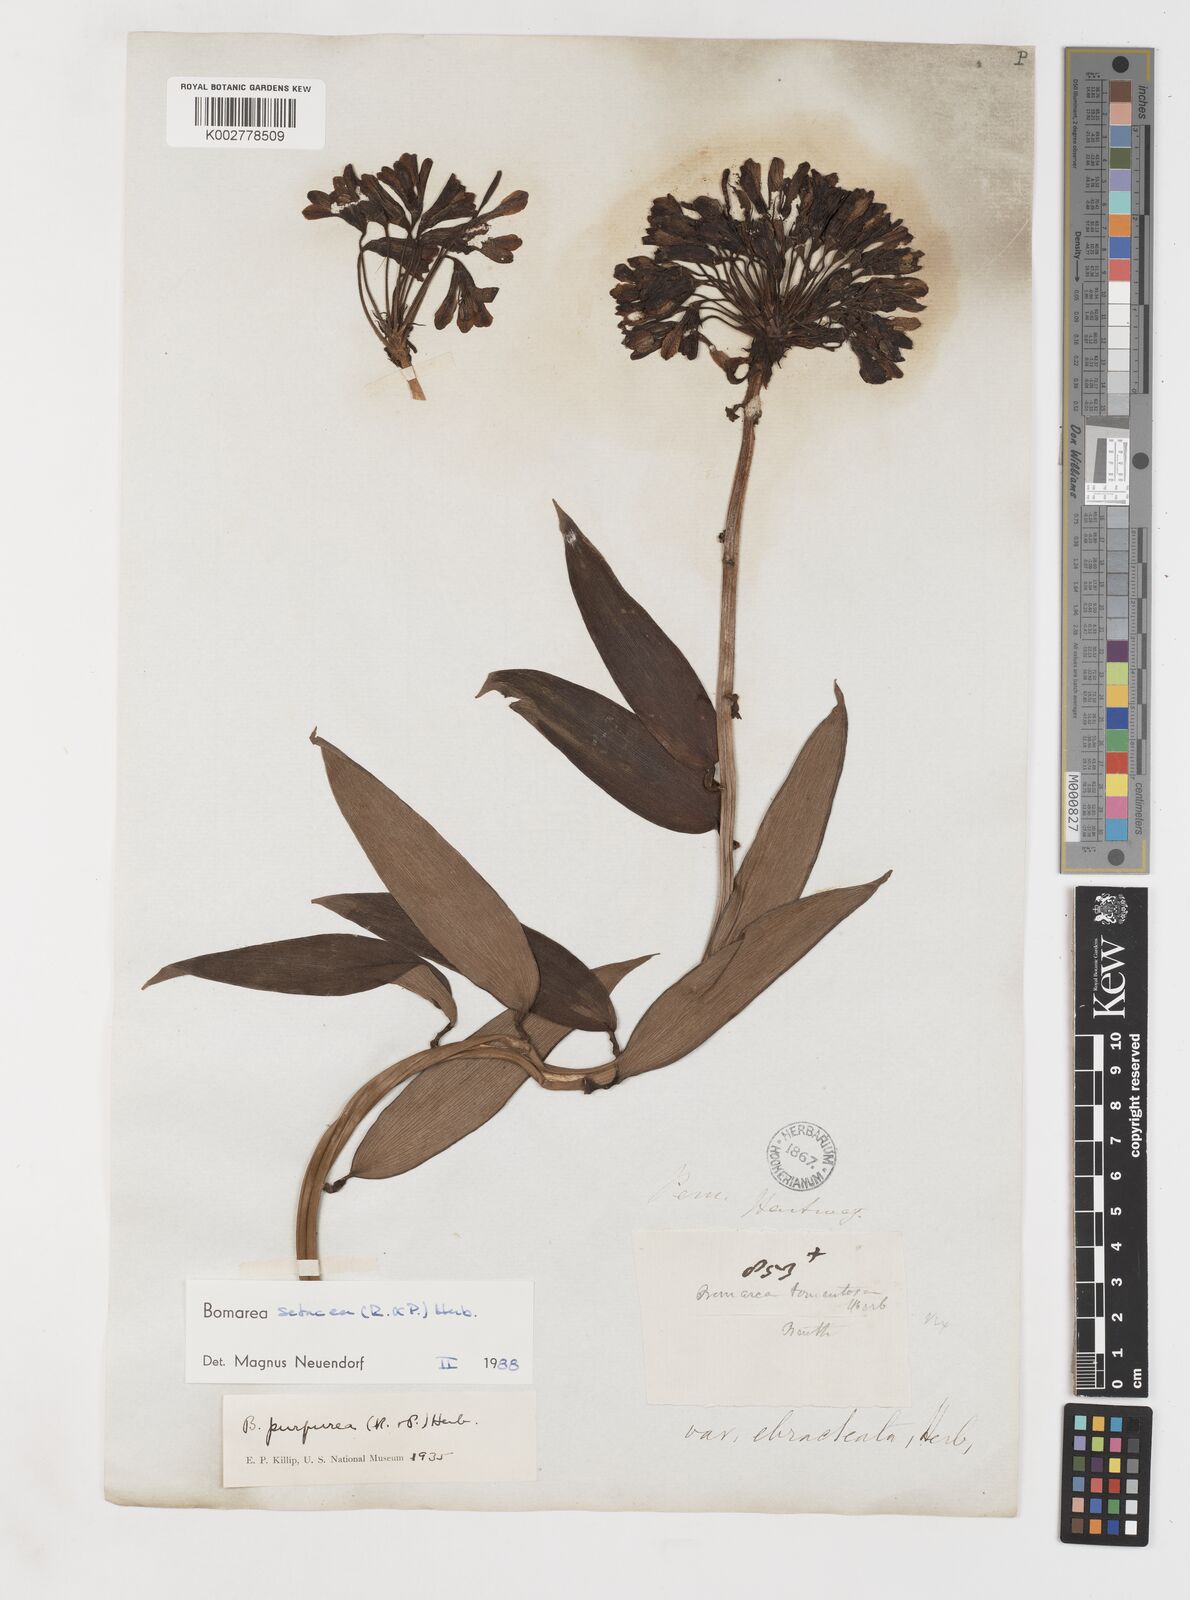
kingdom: Plantae
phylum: Tracheophyta
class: Liliopsida
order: Liliales
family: Alstroemeriaceae
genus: Bomarea
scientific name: Bomarea setacea
